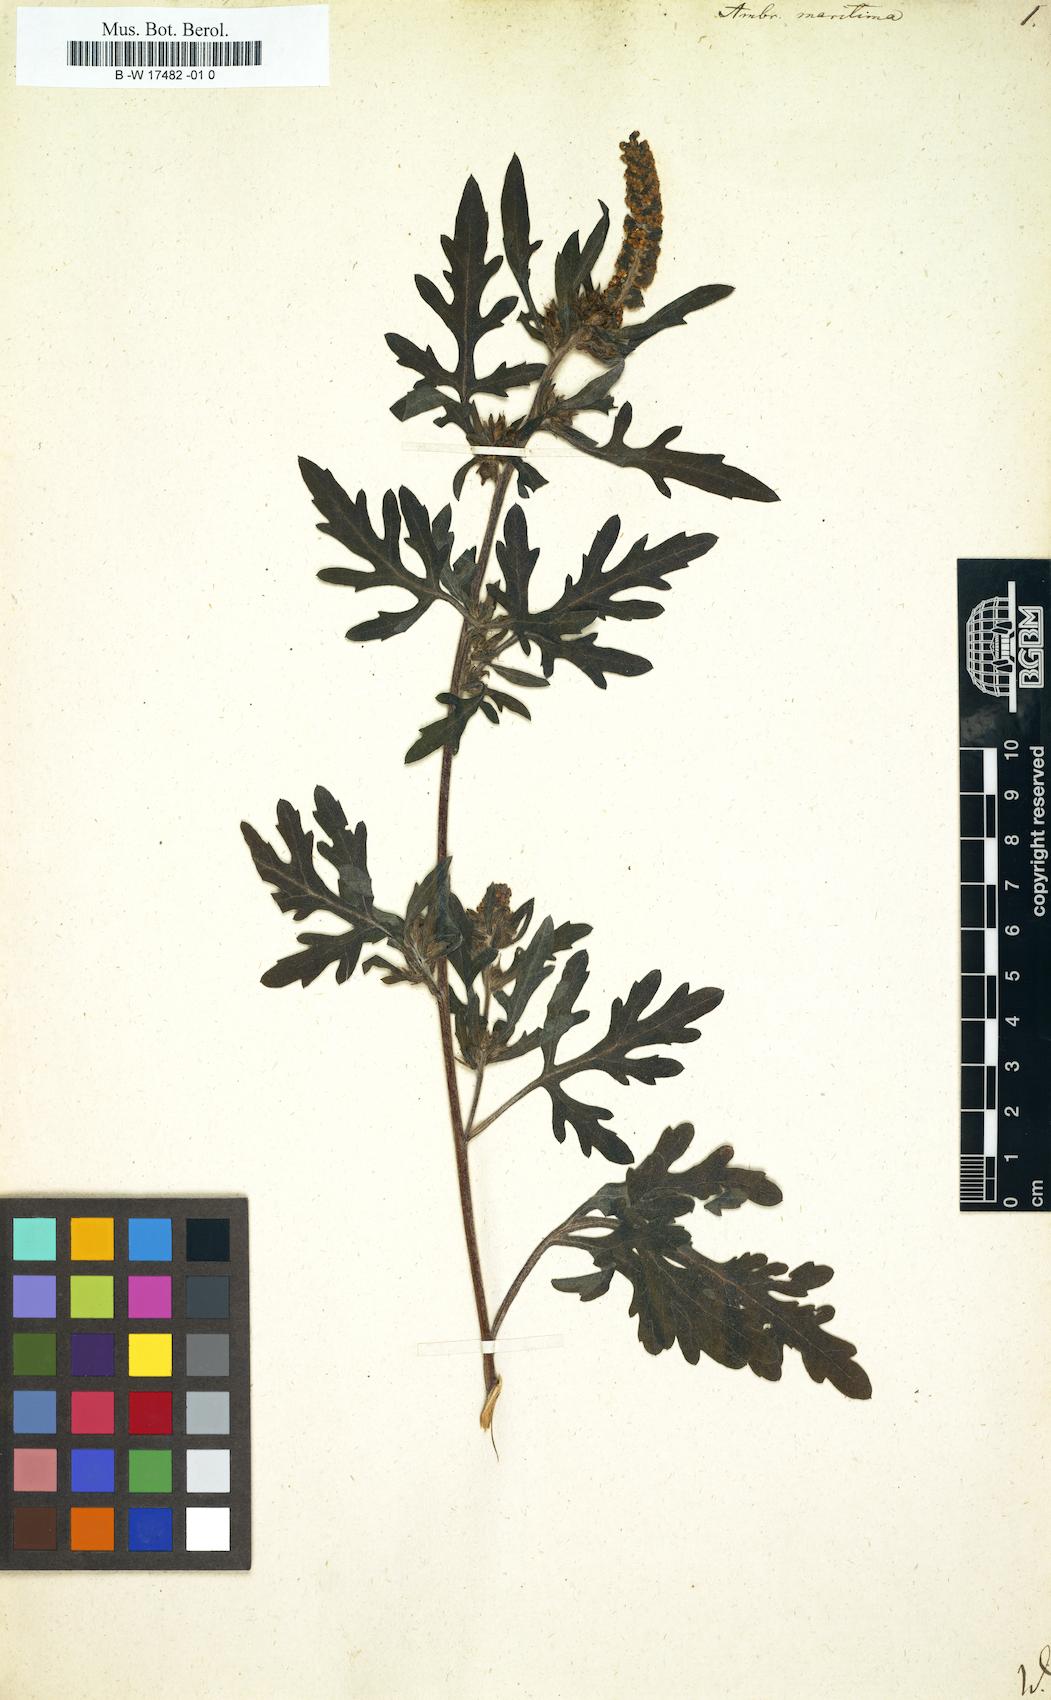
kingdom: Plantae
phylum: Tracheophyta
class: Magnoliopsida
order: Asterales
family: Asteraceae
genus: Ambrosia
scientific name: Ambrosia maritima
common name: Sea ambrosia
